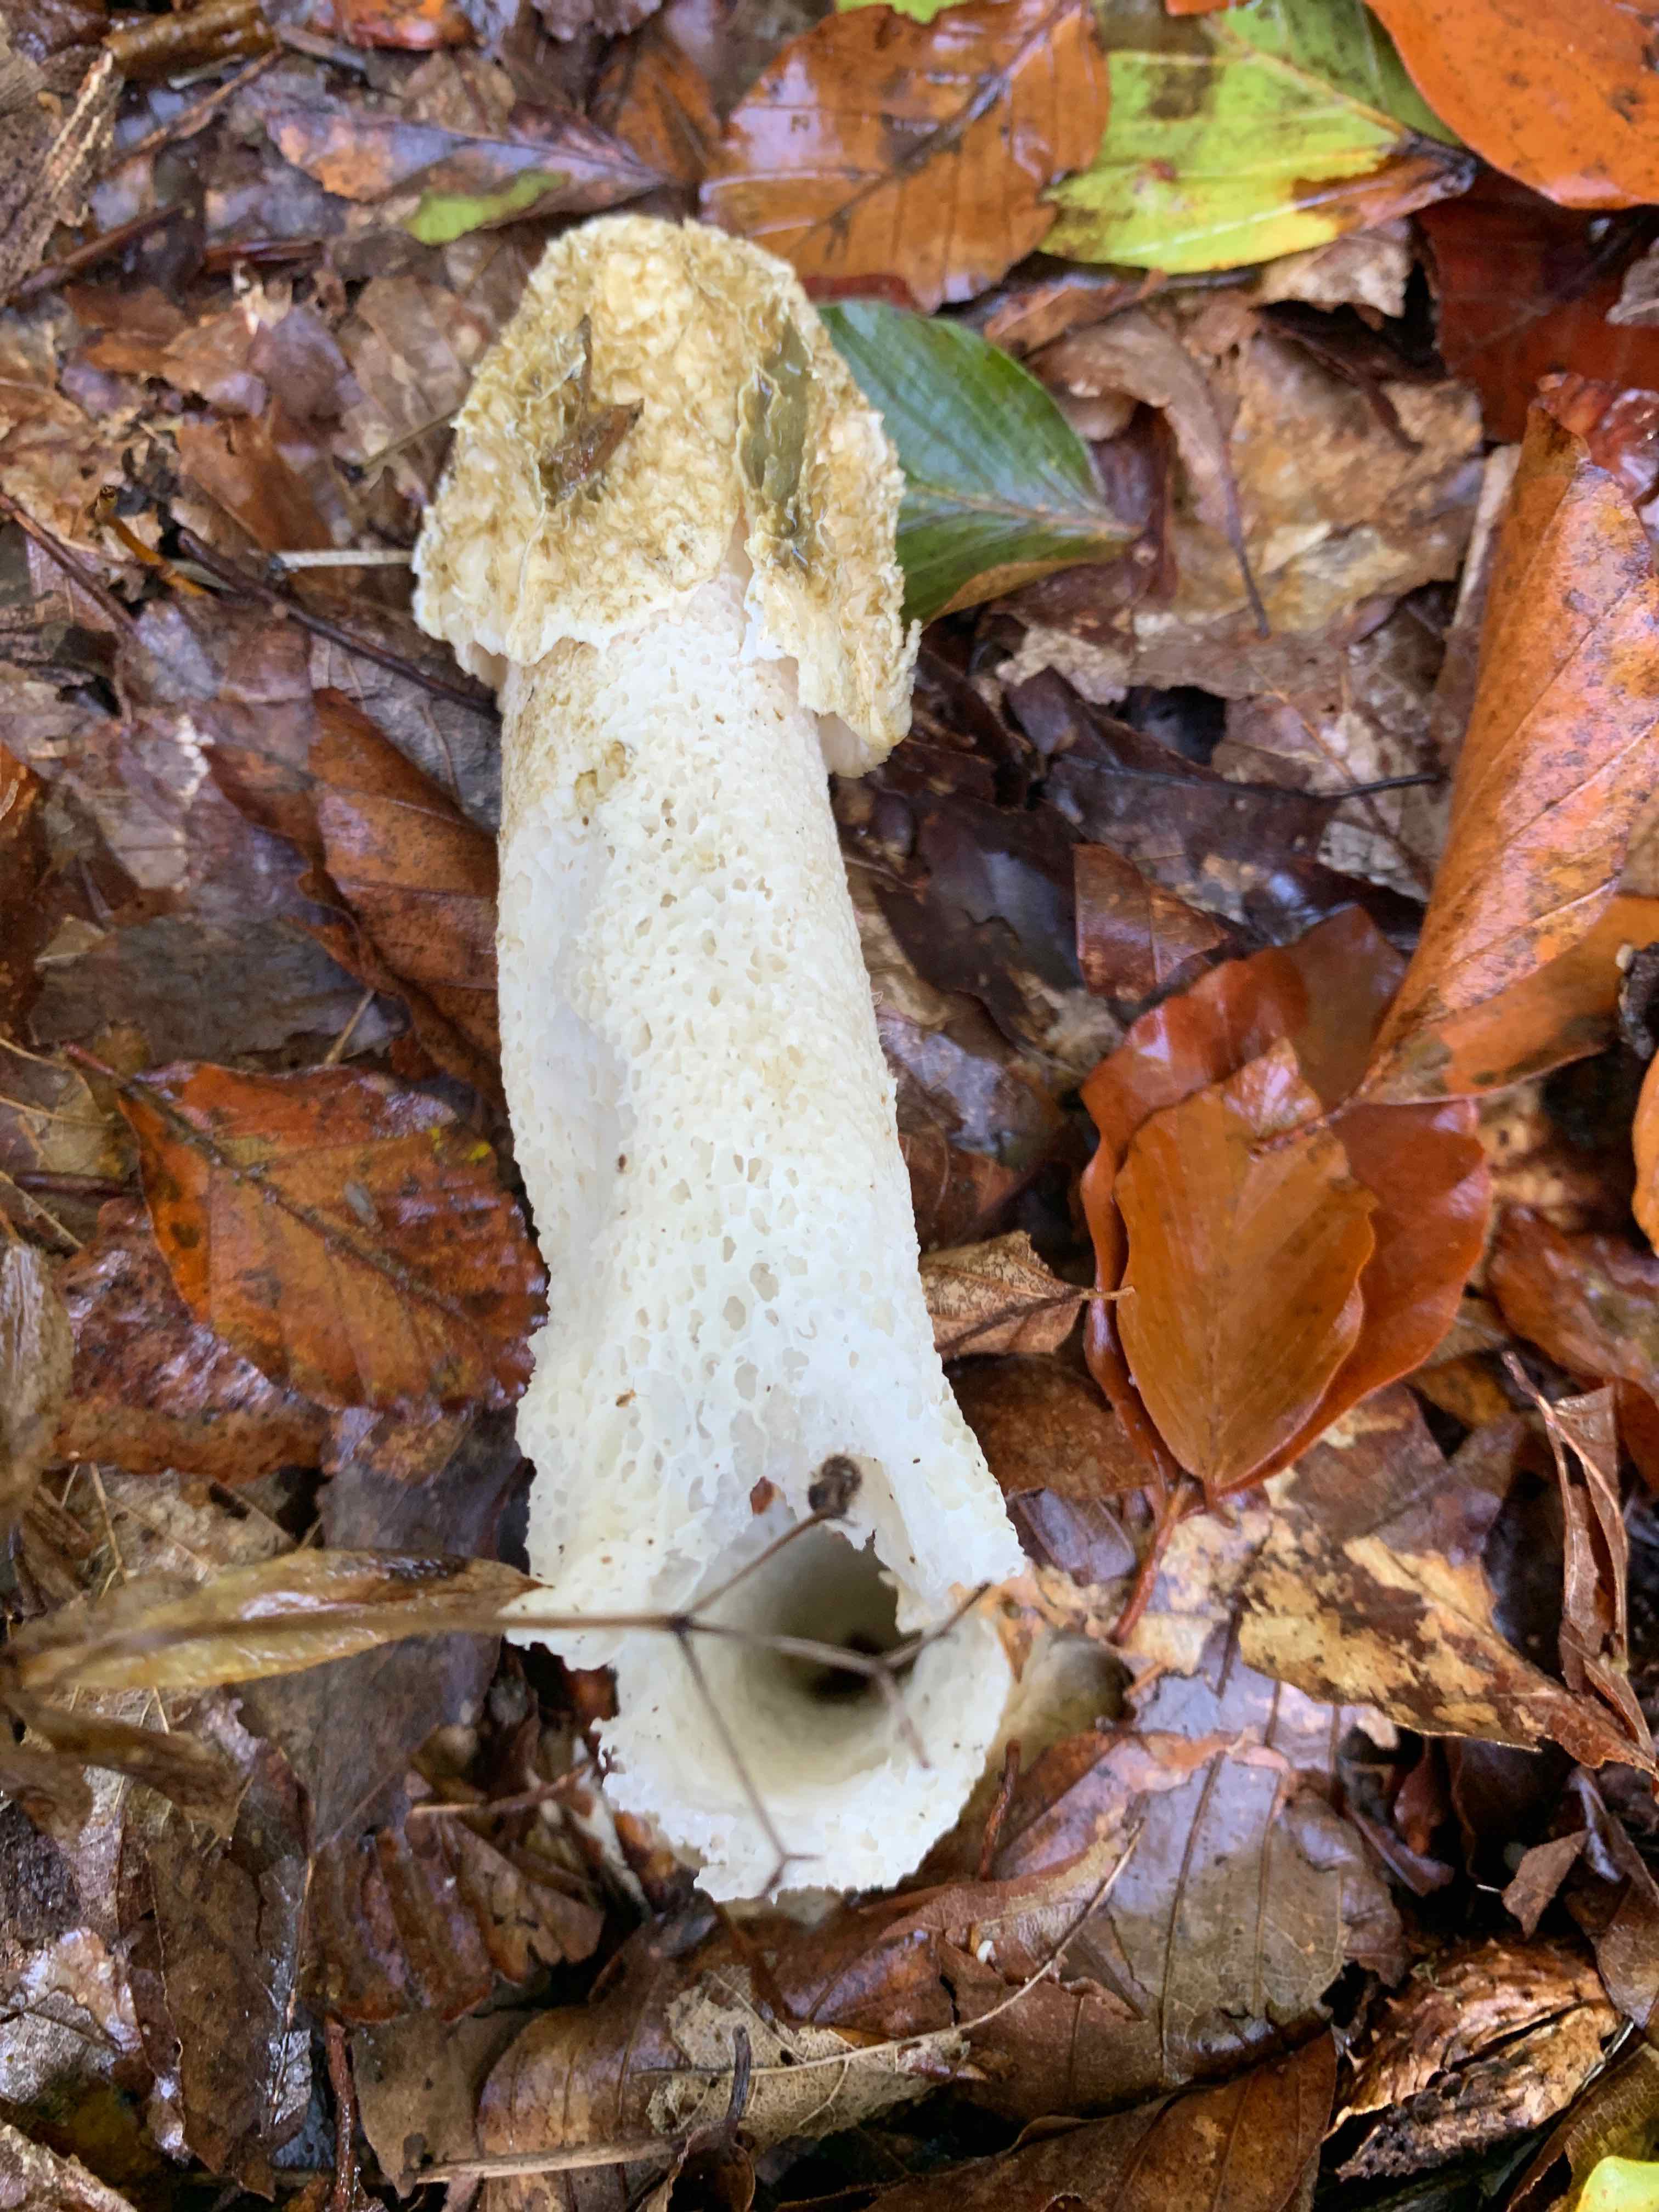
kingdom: Fungi
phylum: Basidiomycota
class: Agaricomycetes
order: Phallales
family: Phallaceae
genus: Phallus
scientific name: Phallus impudicus
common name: almindelig stinksvamp
